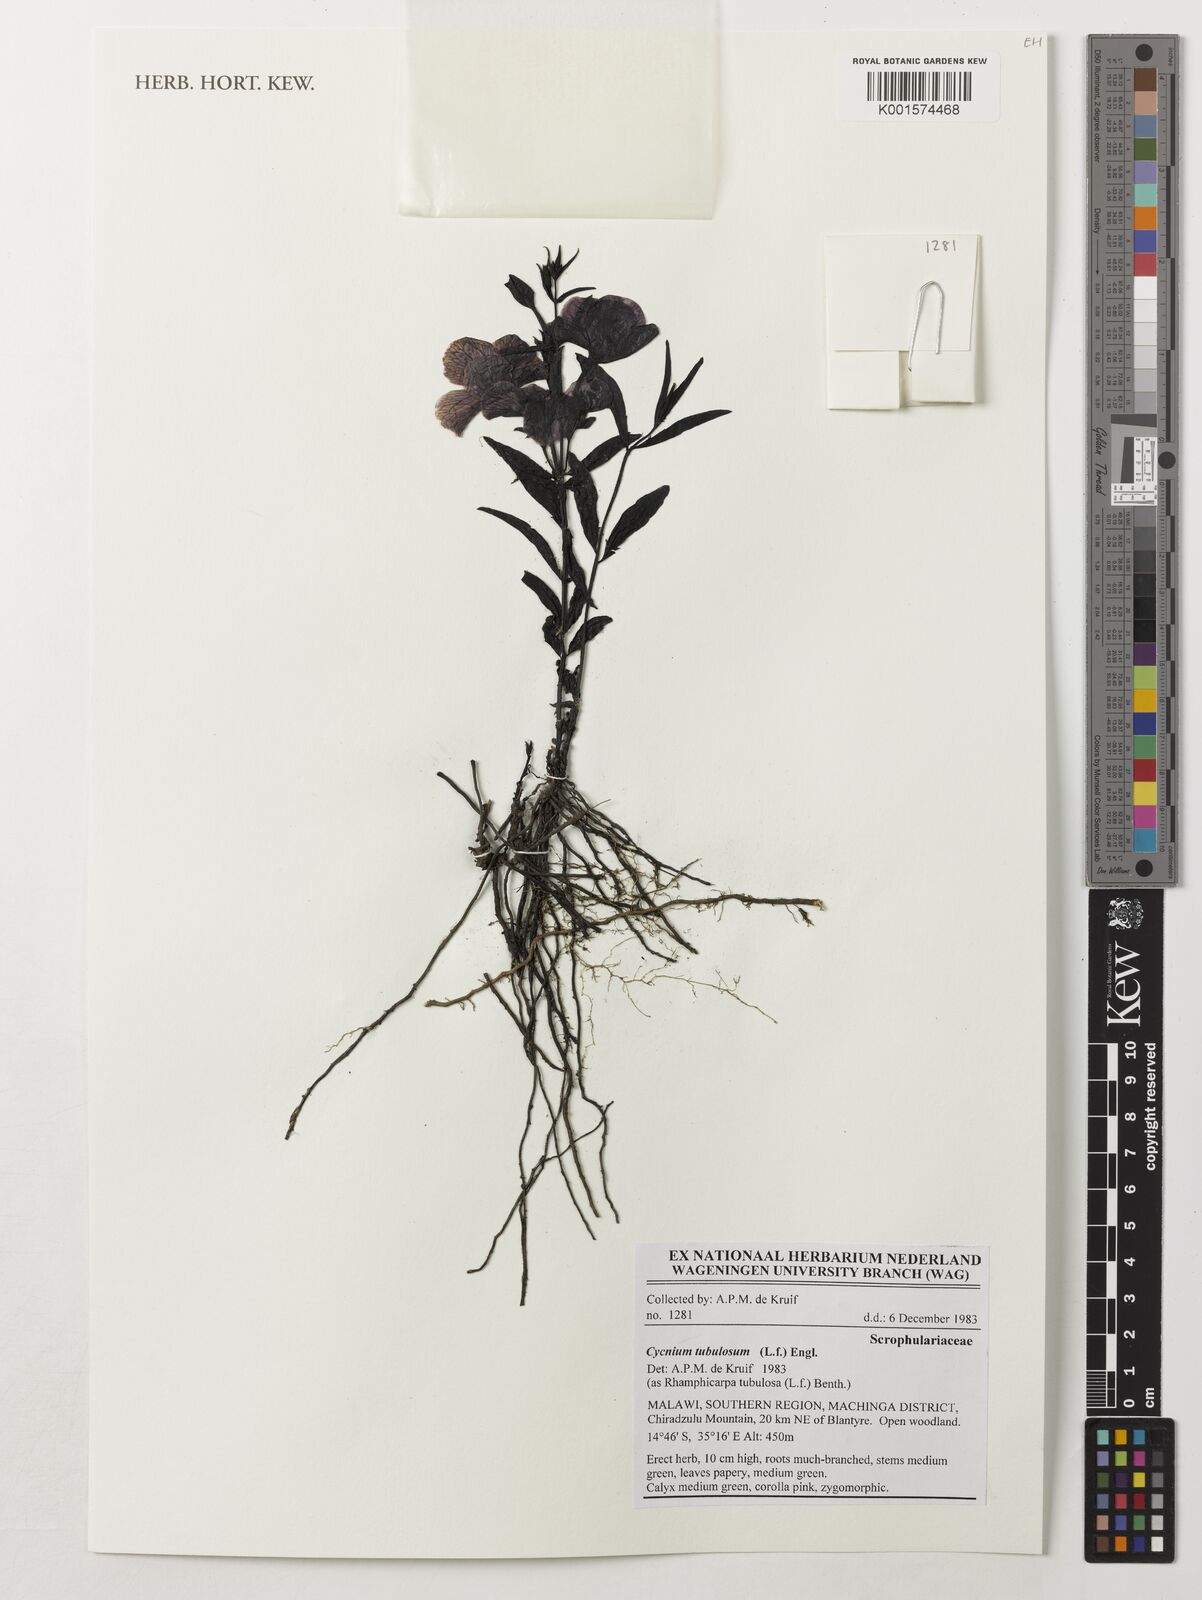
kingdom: Plantae
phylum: Tracheophyta
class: Magnoliopsida
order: Lamiales
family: Orobanchaceae
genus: Cycnium
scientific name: Cycnium tubulosum
